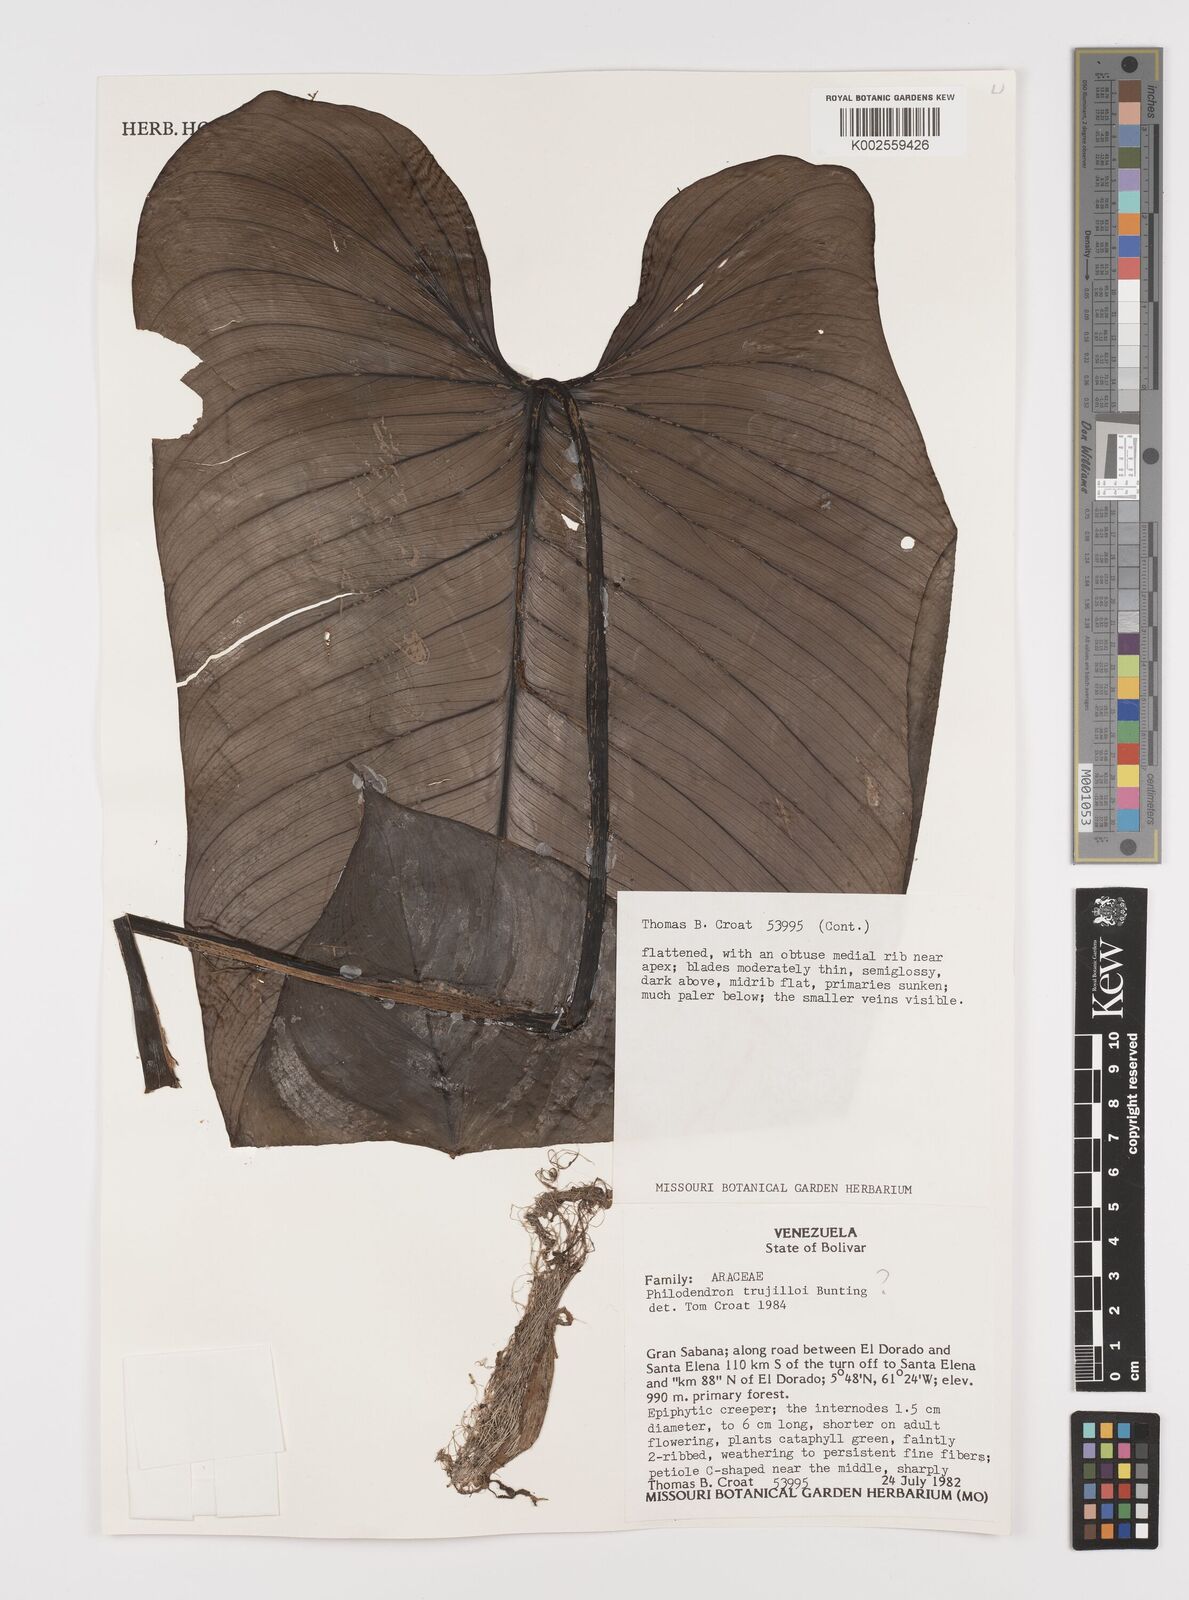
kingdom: Plantae
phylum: Tracheophyta
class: Liliopsida
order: Alismatales
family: Araceae
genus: Philodendron
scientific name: Philodendron trujilloi
